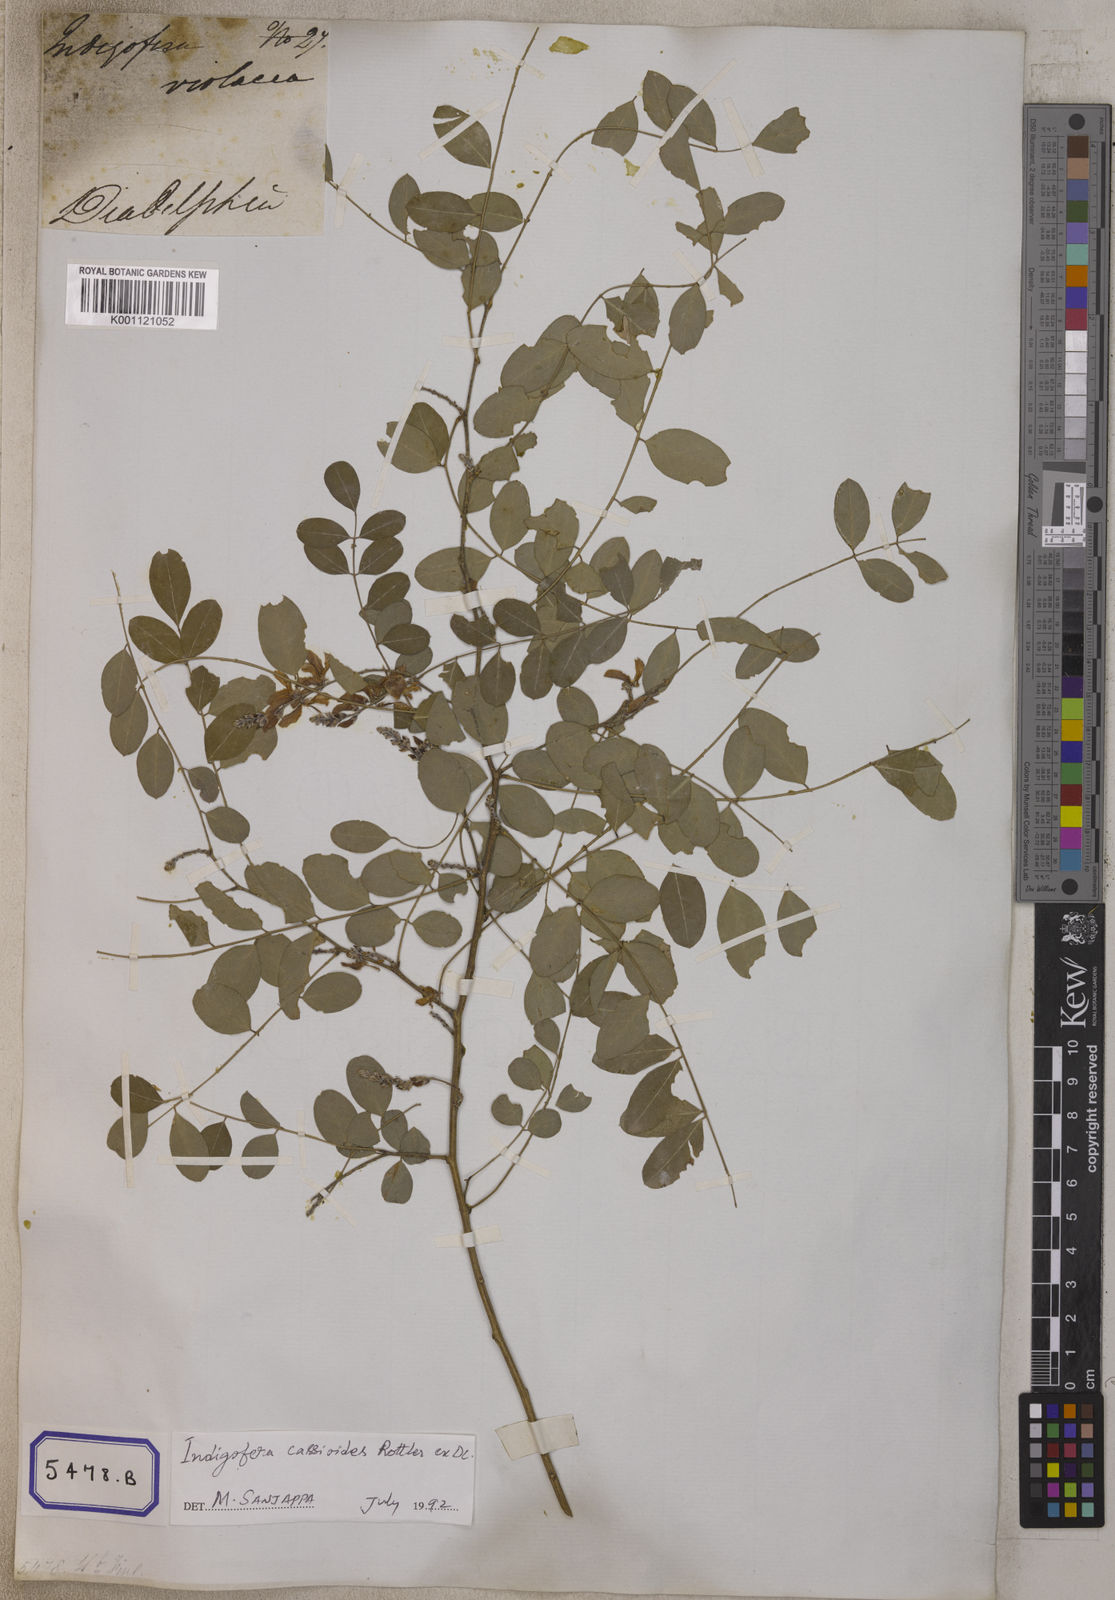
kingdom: Plantae
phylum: Tracheophyta
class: Magnoliopsida
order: Fabales
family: Fabaceae
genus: Indigofera
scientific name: Indigofera cassioides
